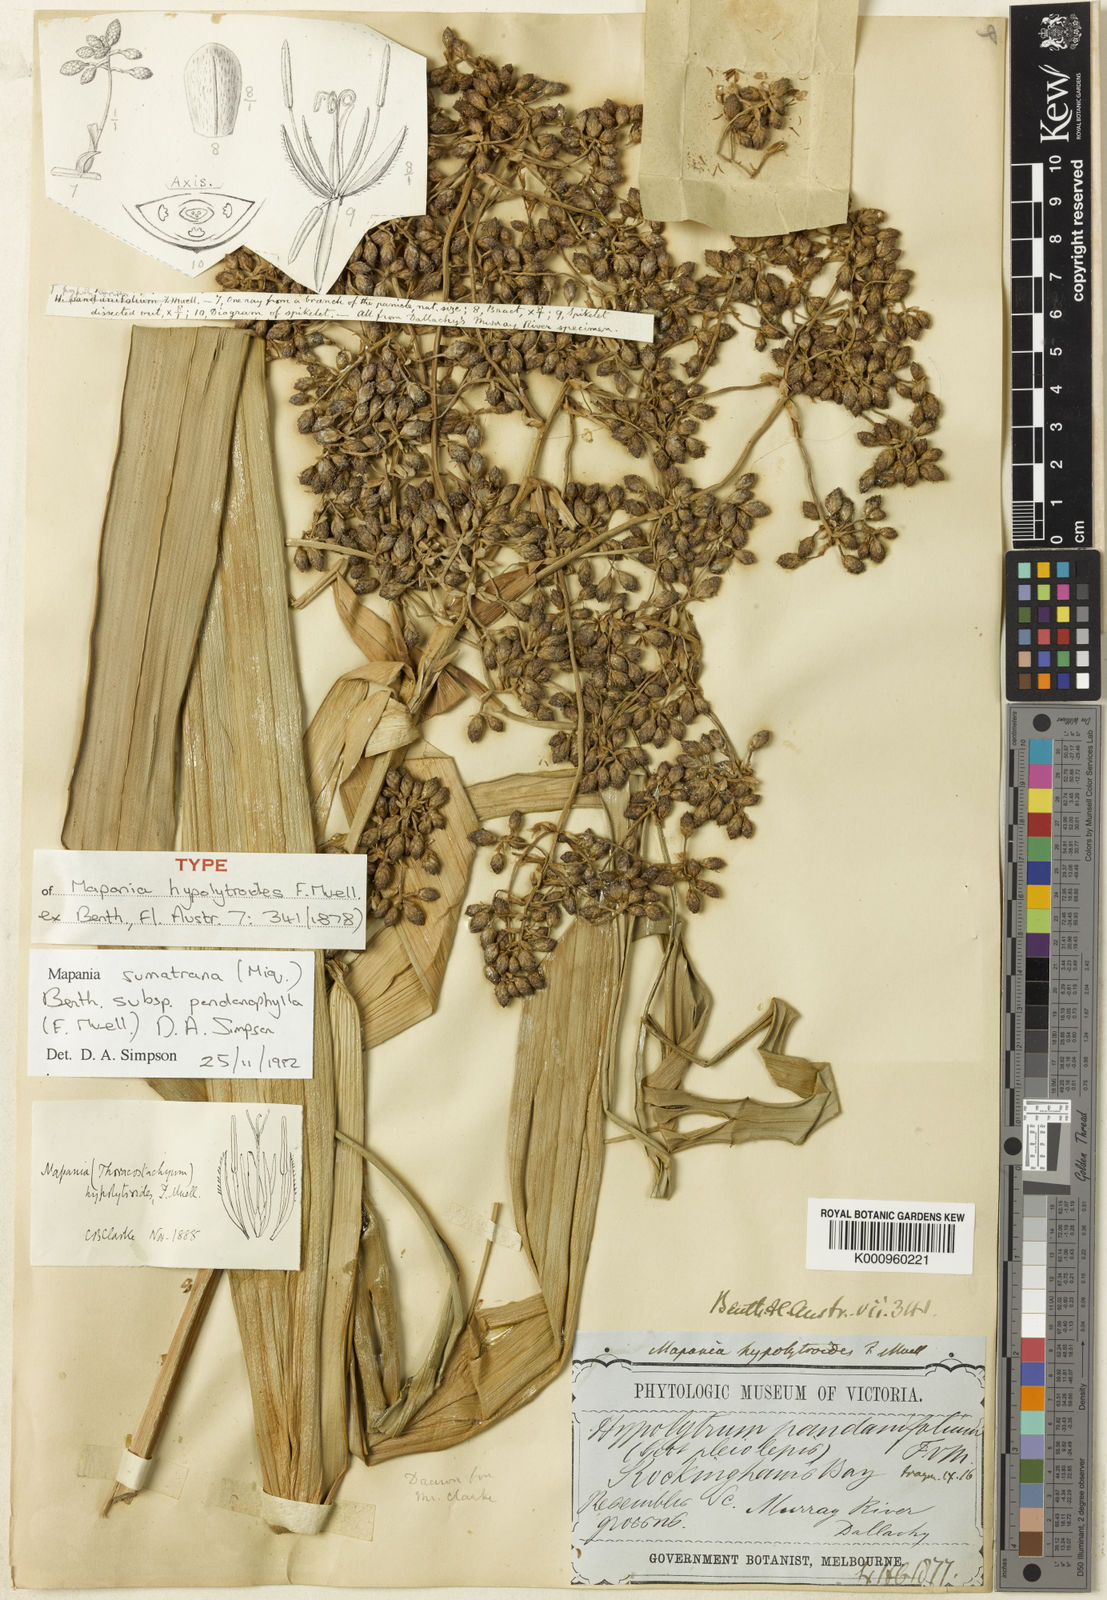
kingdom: Plantae
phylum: Tracheophyta
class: Liliopsida
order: Poales
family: Cyperaceae
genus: Mapania
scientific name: Mapania sumatrana
